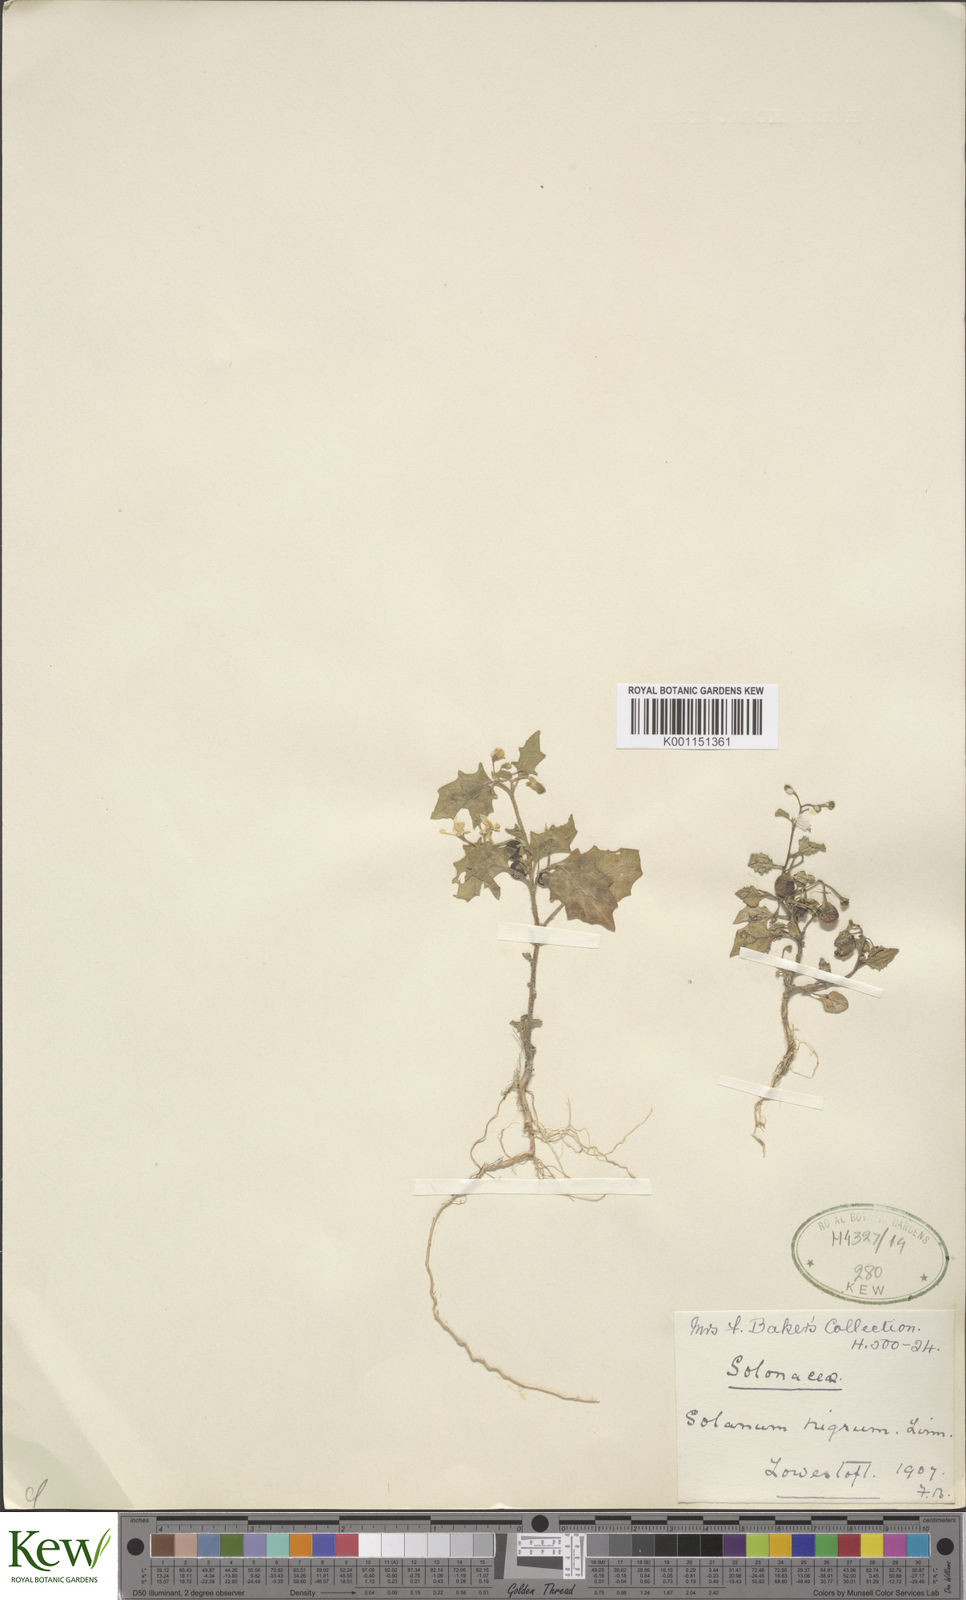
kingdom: Plantae
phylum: Tracheophyta
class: Magnoliopsida
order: Solanales
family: Solanaceae
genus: Solanum
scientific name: Solanum nigrum
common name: Black nightshade
